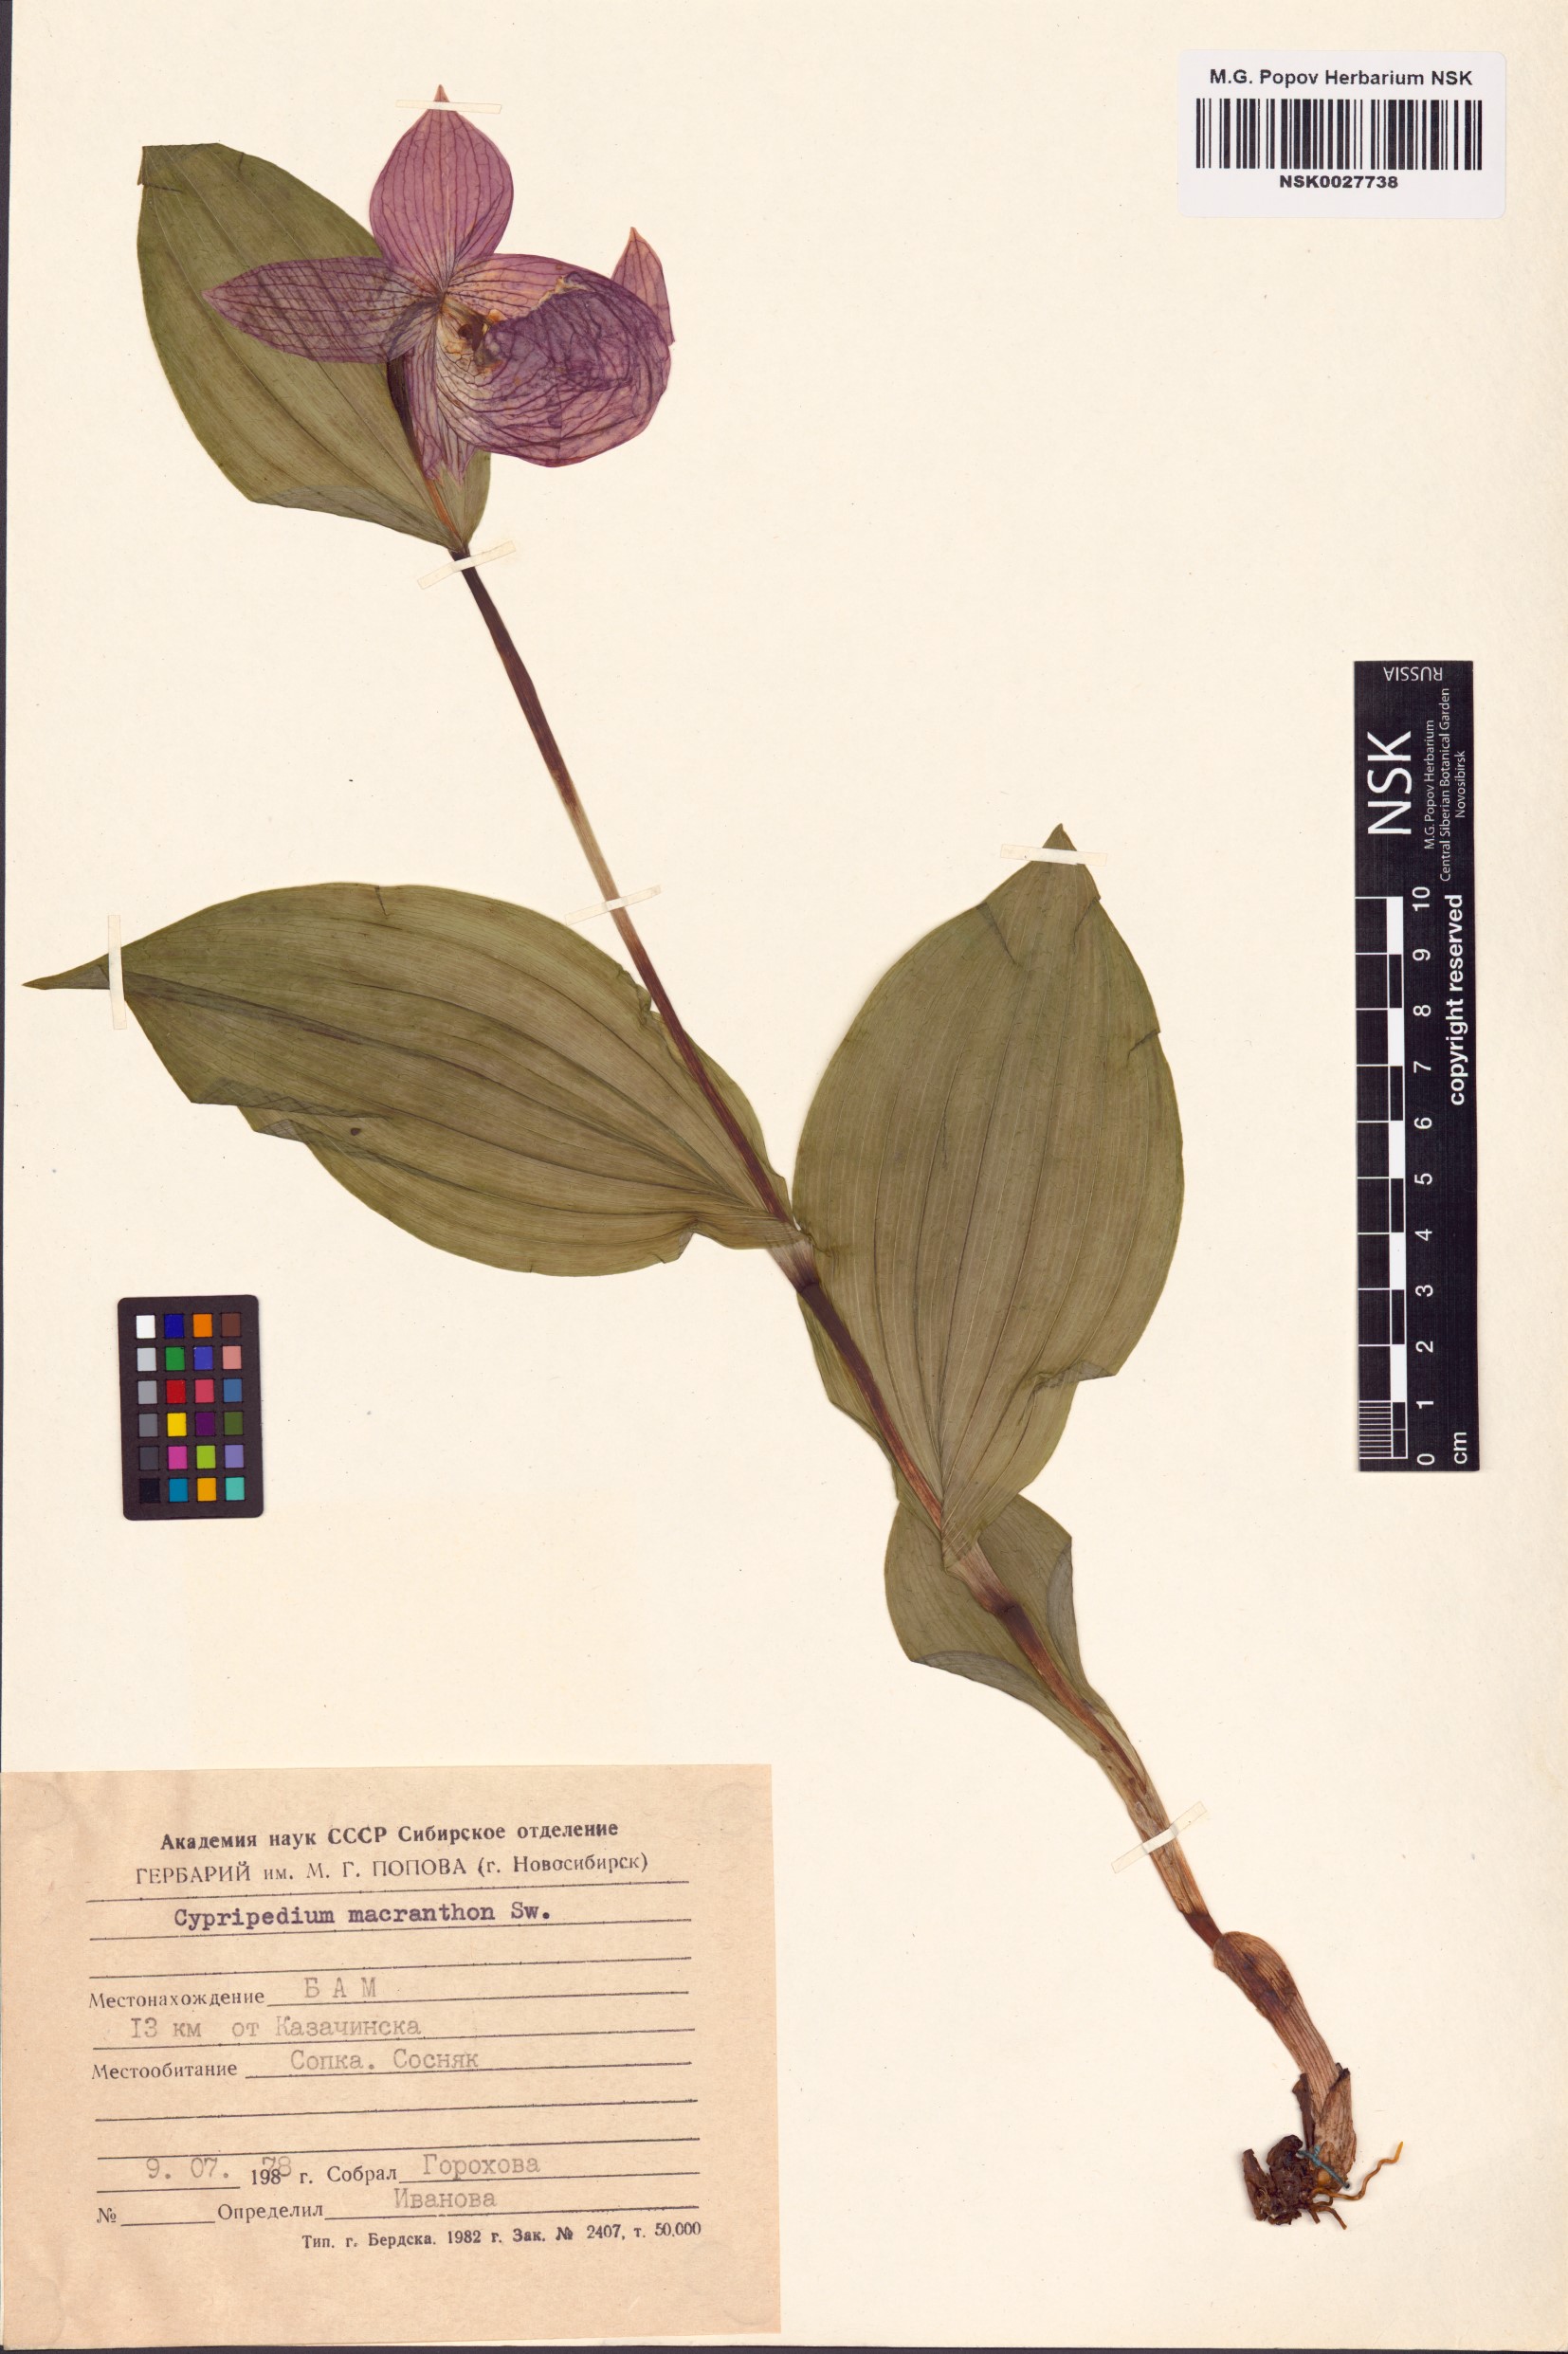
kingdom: Plantae
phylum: Tracheophyta
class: Liliopsida
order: Asparagales
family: Orchidaceae
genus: Cypripedium
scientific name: Cypripedium macranthos
